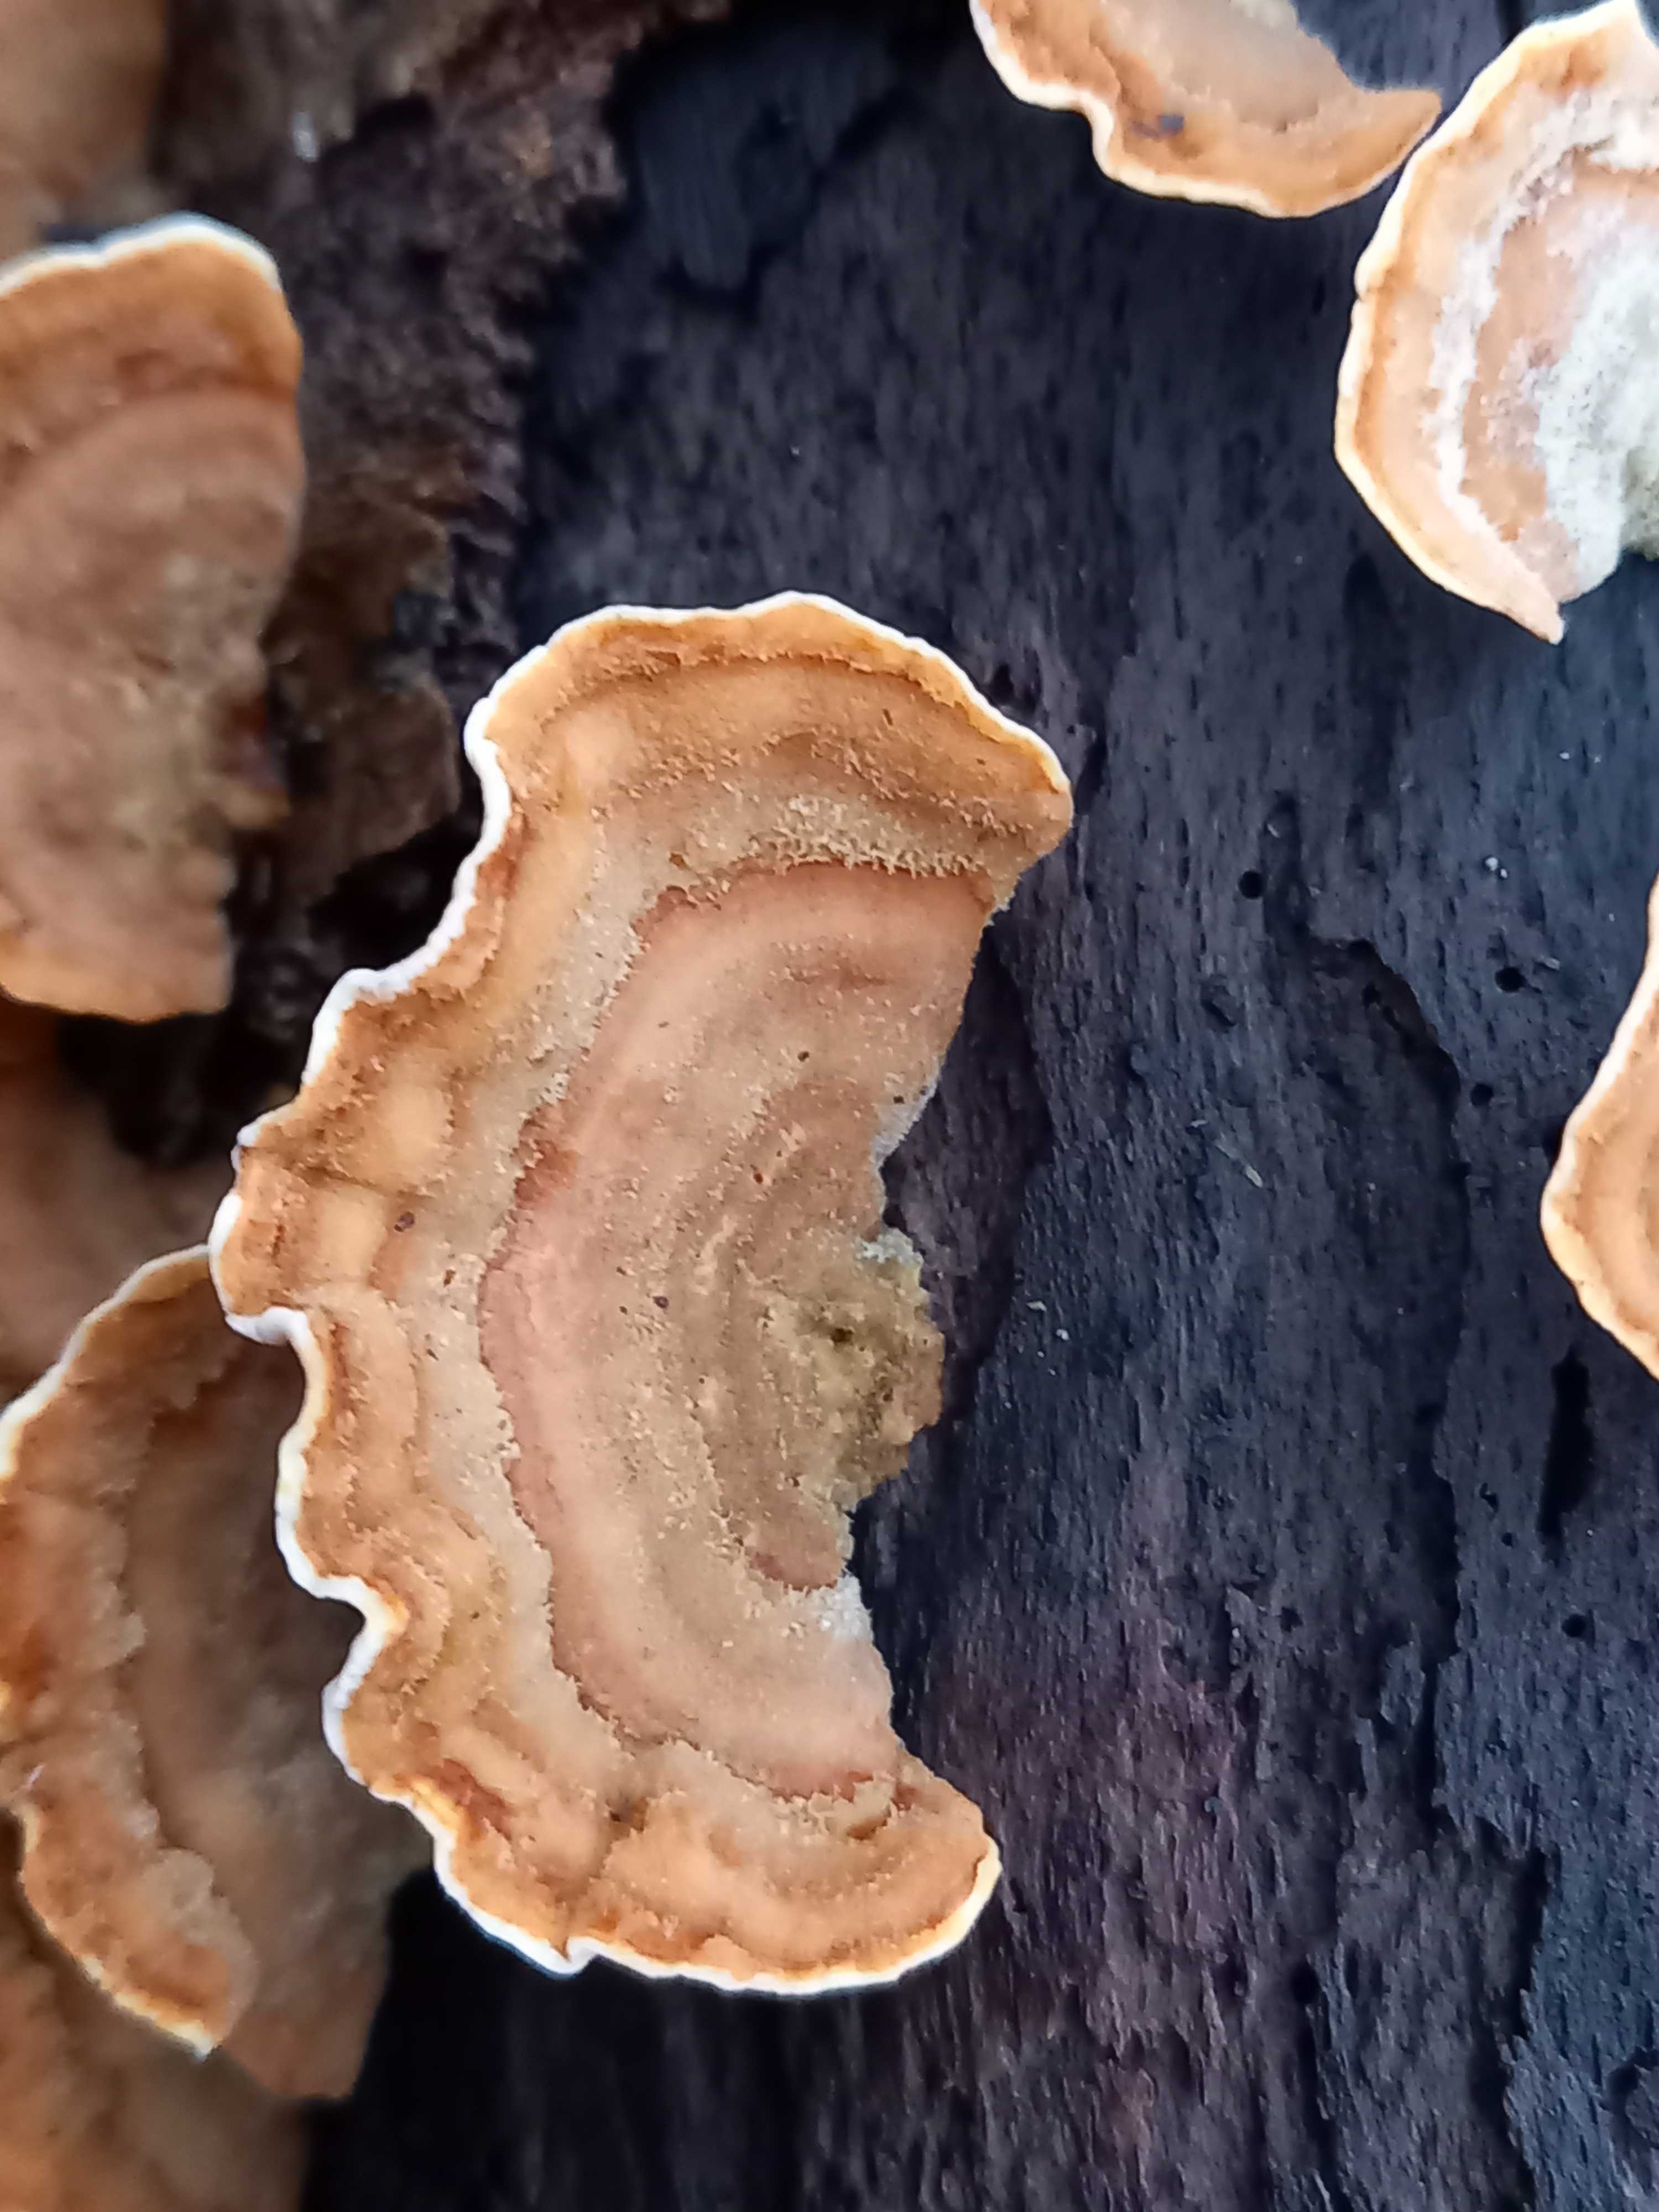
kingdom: Fungi
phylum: Basidiomycota
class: Agaricomycetes
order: Russulales
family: Stereaceae
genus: Stereum
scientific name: Stereum subtomentosum
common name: smuk lædersvamp
